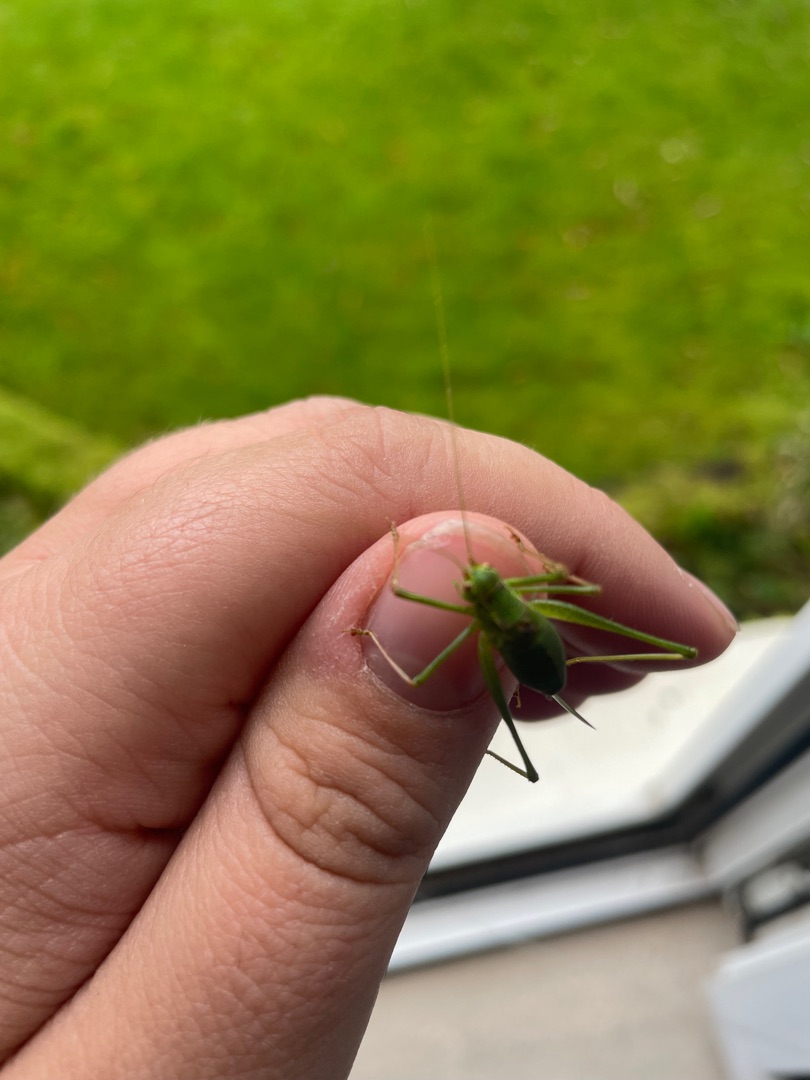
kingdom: Animalia
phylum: Arthropoda
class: Insecta
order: Orthoptera
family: Tettigoniidae
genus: Leptophyes
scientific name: Leptophyes punctatissima
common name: Krumknivgræshoppe
